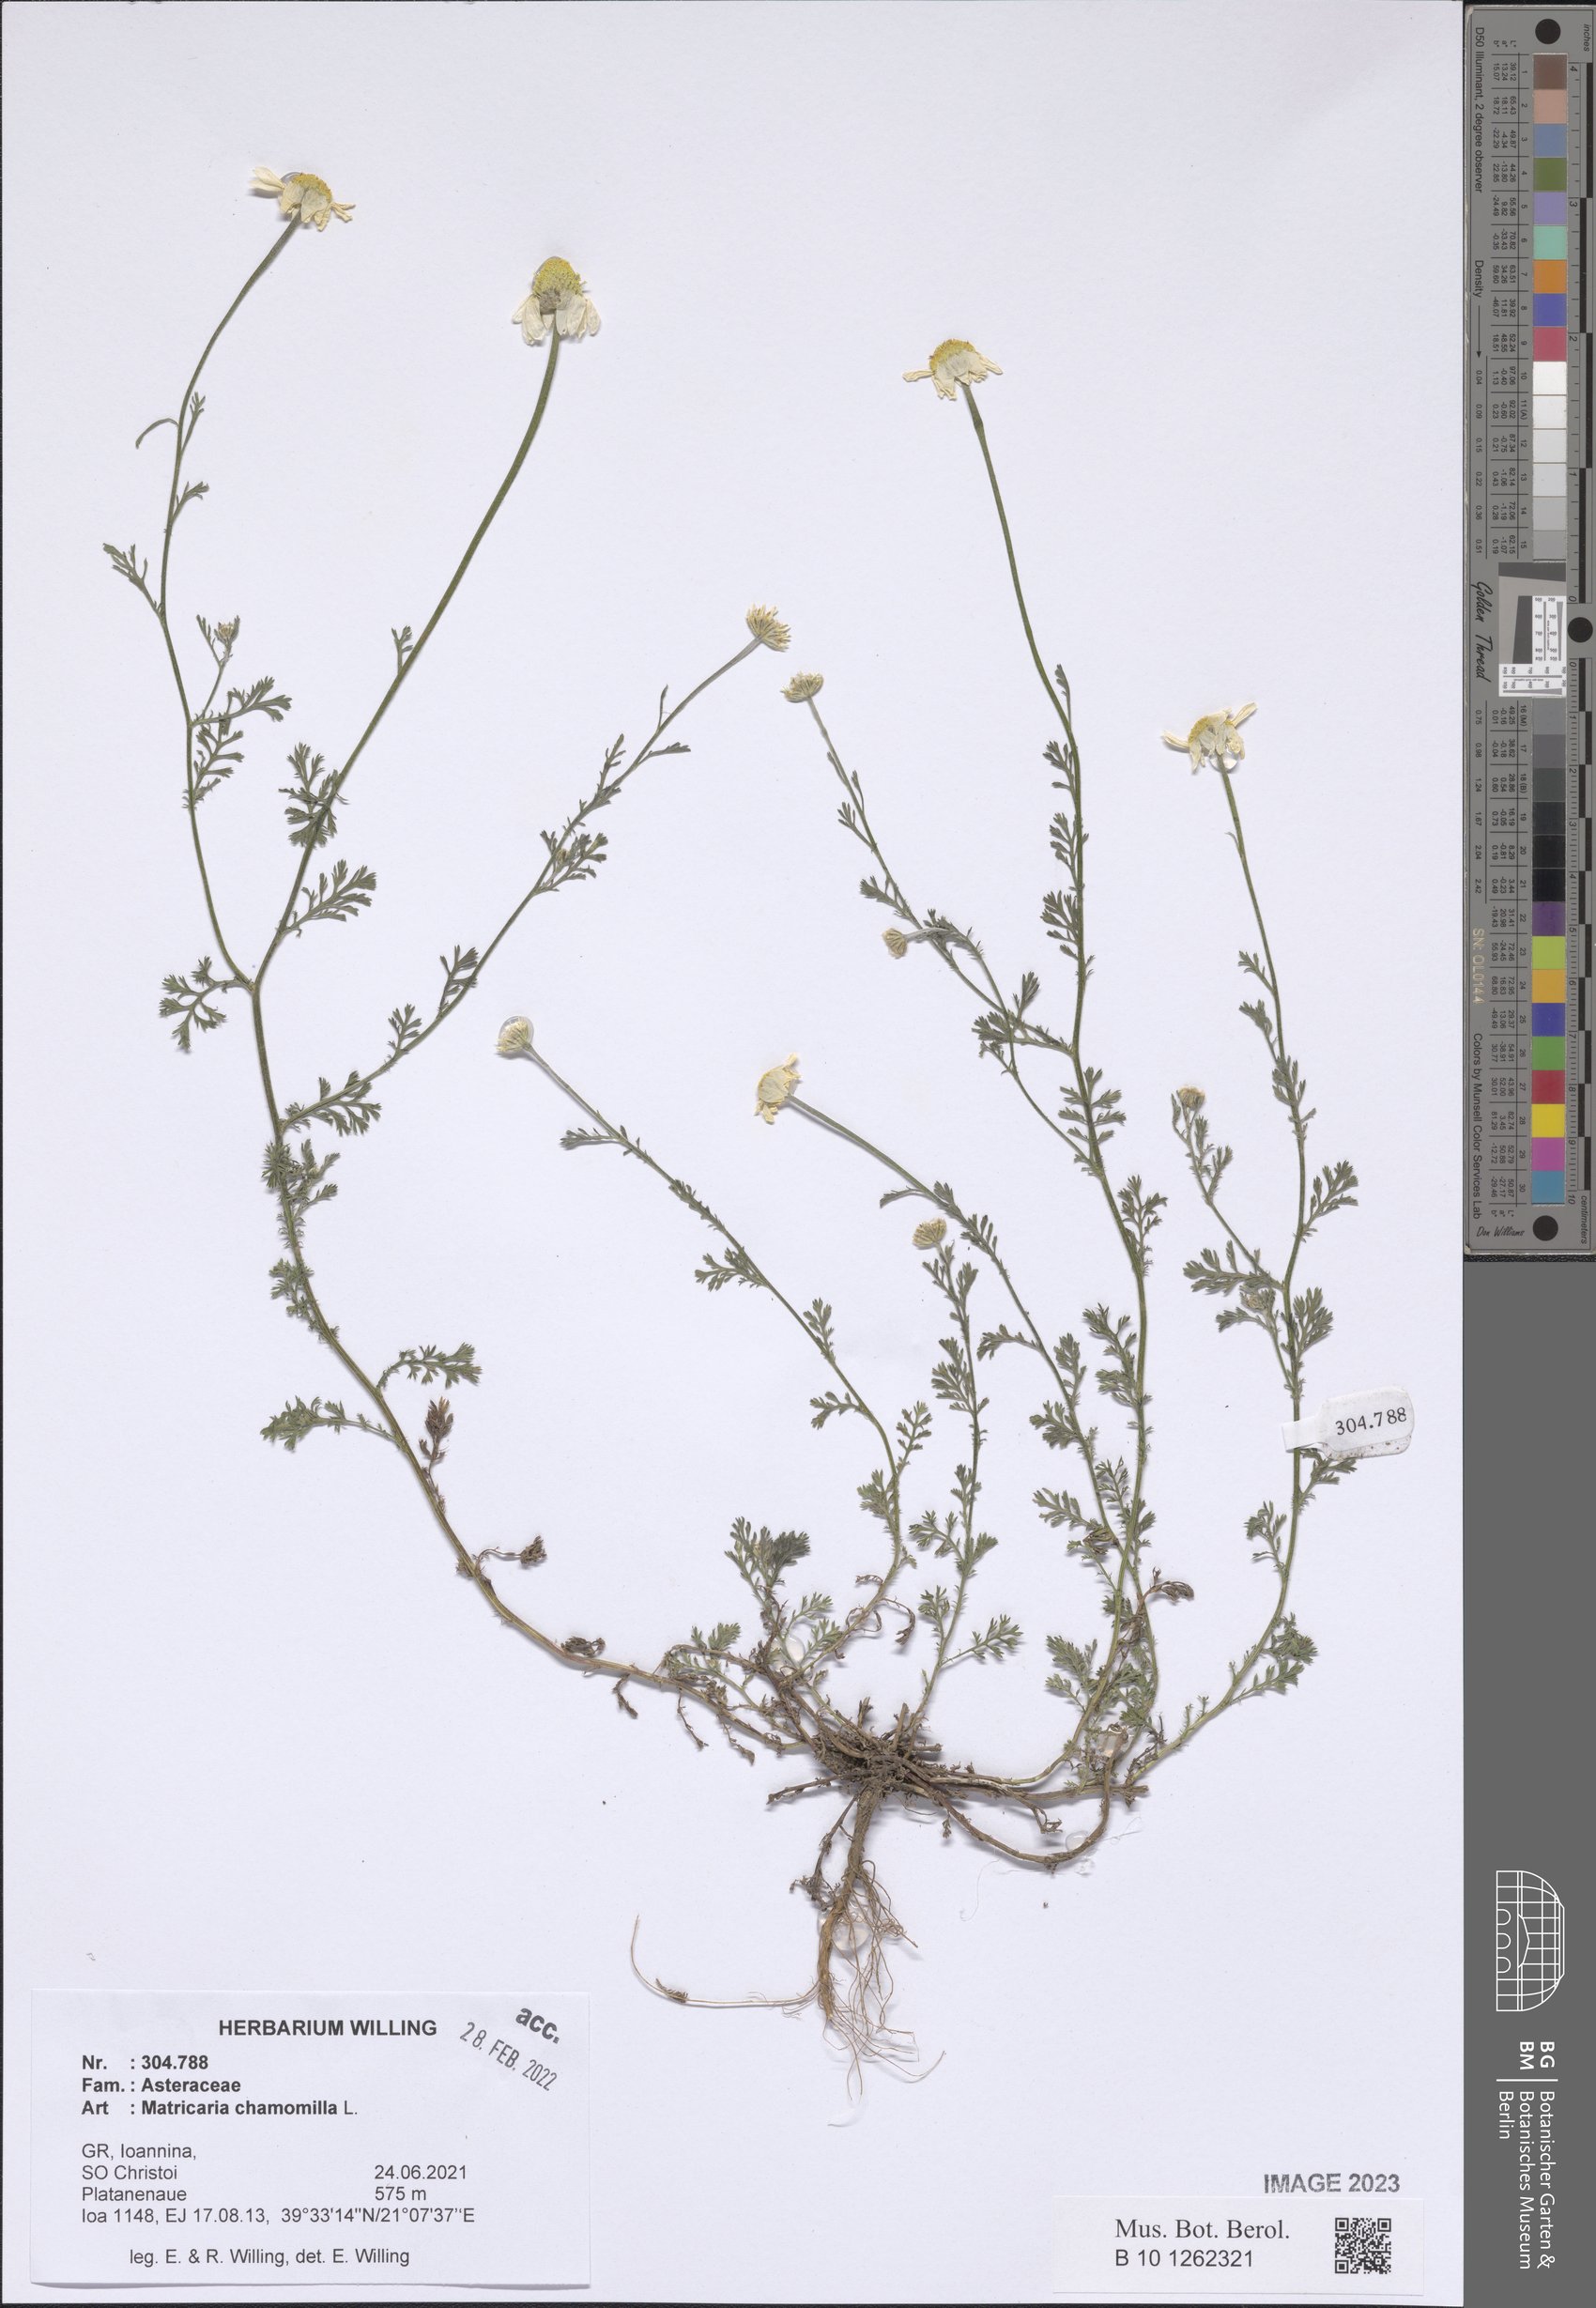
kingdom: Plantae
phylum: Tracheophyta
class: Magnoliopsida
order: Asterales
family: Asteraceae
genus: Matricaria
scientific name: Matricaria chamomilla
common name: Scented mayweed
